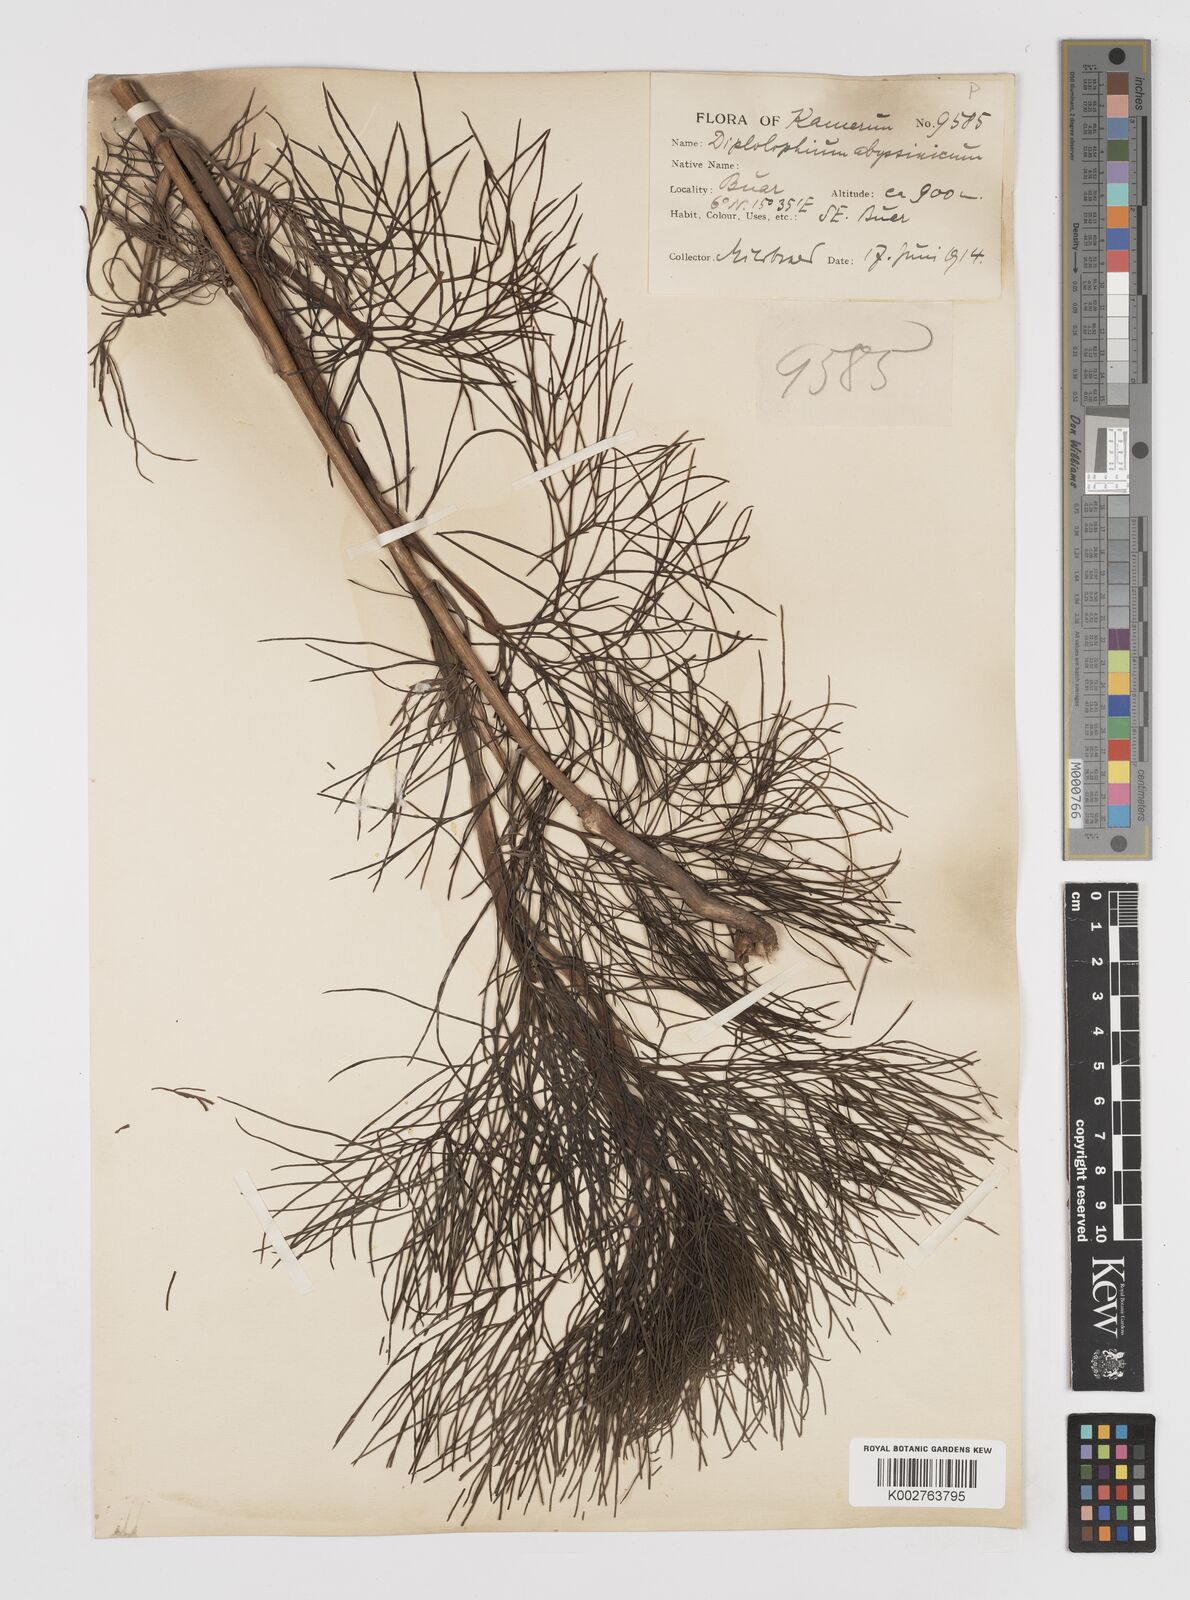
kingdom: Plantae
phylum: Tracheophyta
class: Magnoliopsida
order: Apiales
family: Apiaceae
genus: Diplolophium
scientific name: Diplolophium africanum
